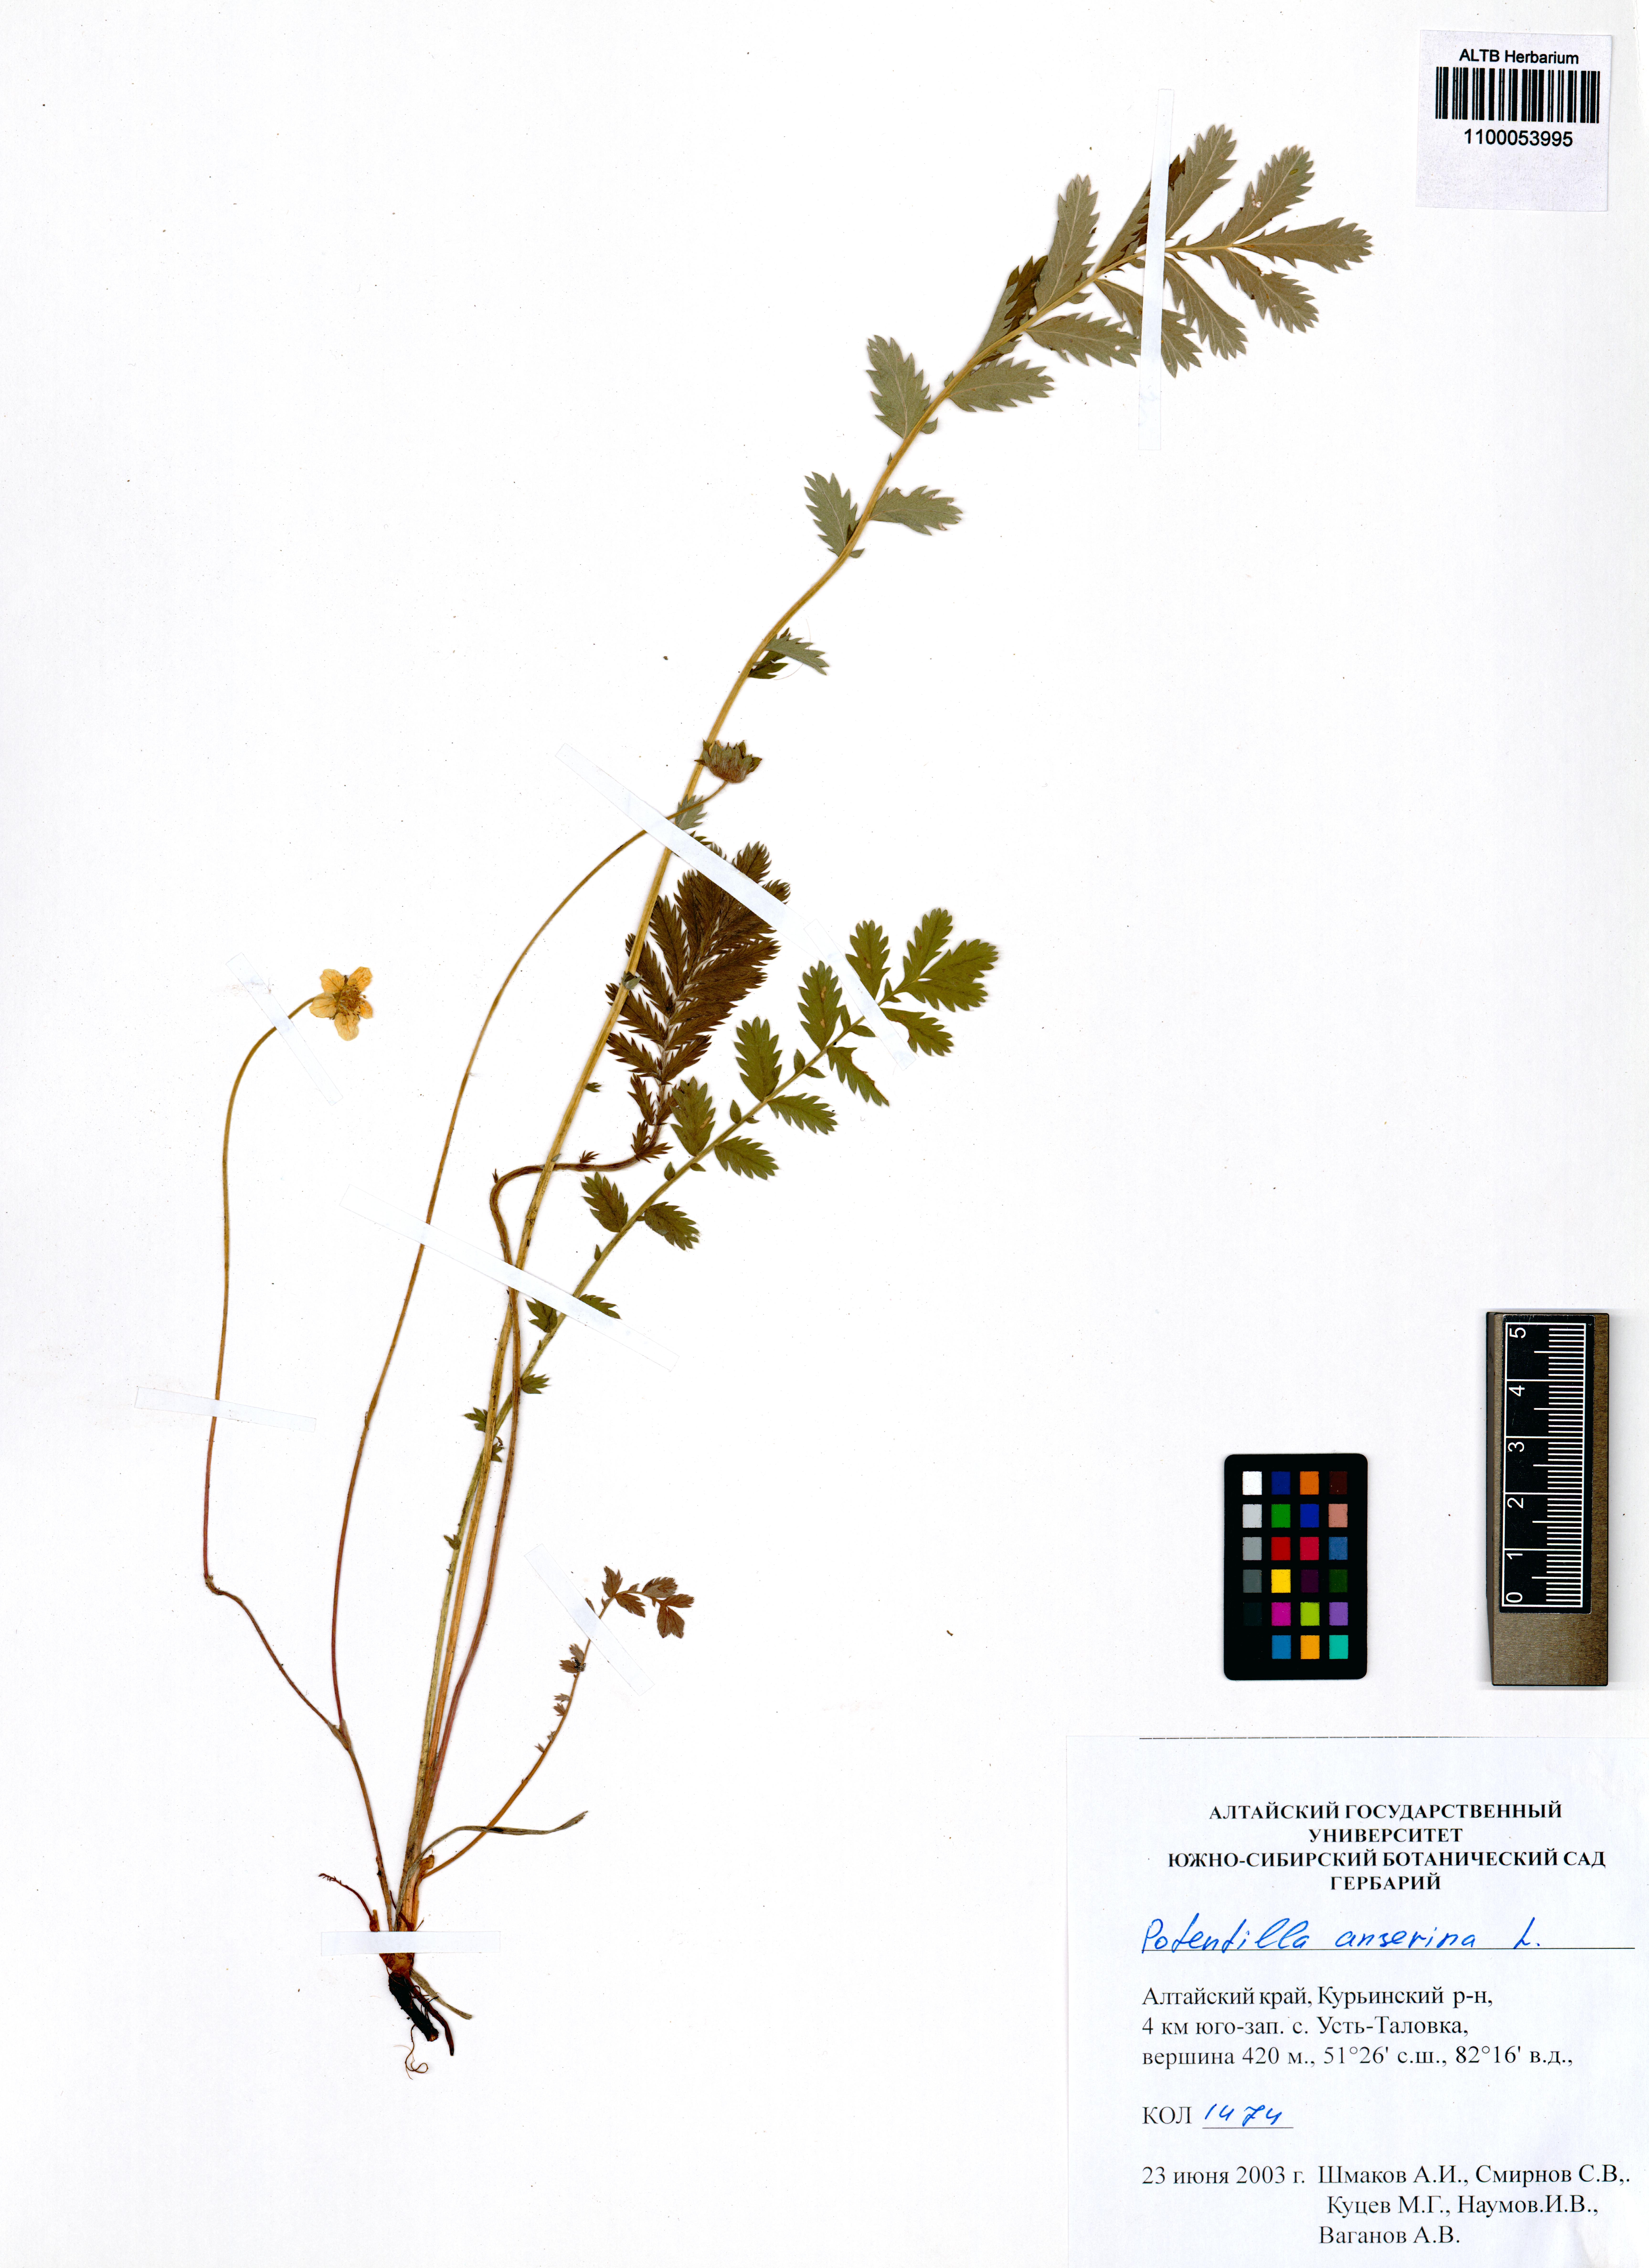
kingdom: Plantae
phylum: Tracheophyta
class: Magnoliopsida
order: Rosales
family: Rosaceae
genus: Argentina
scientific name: Argentina anserina
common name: Common silverweed
